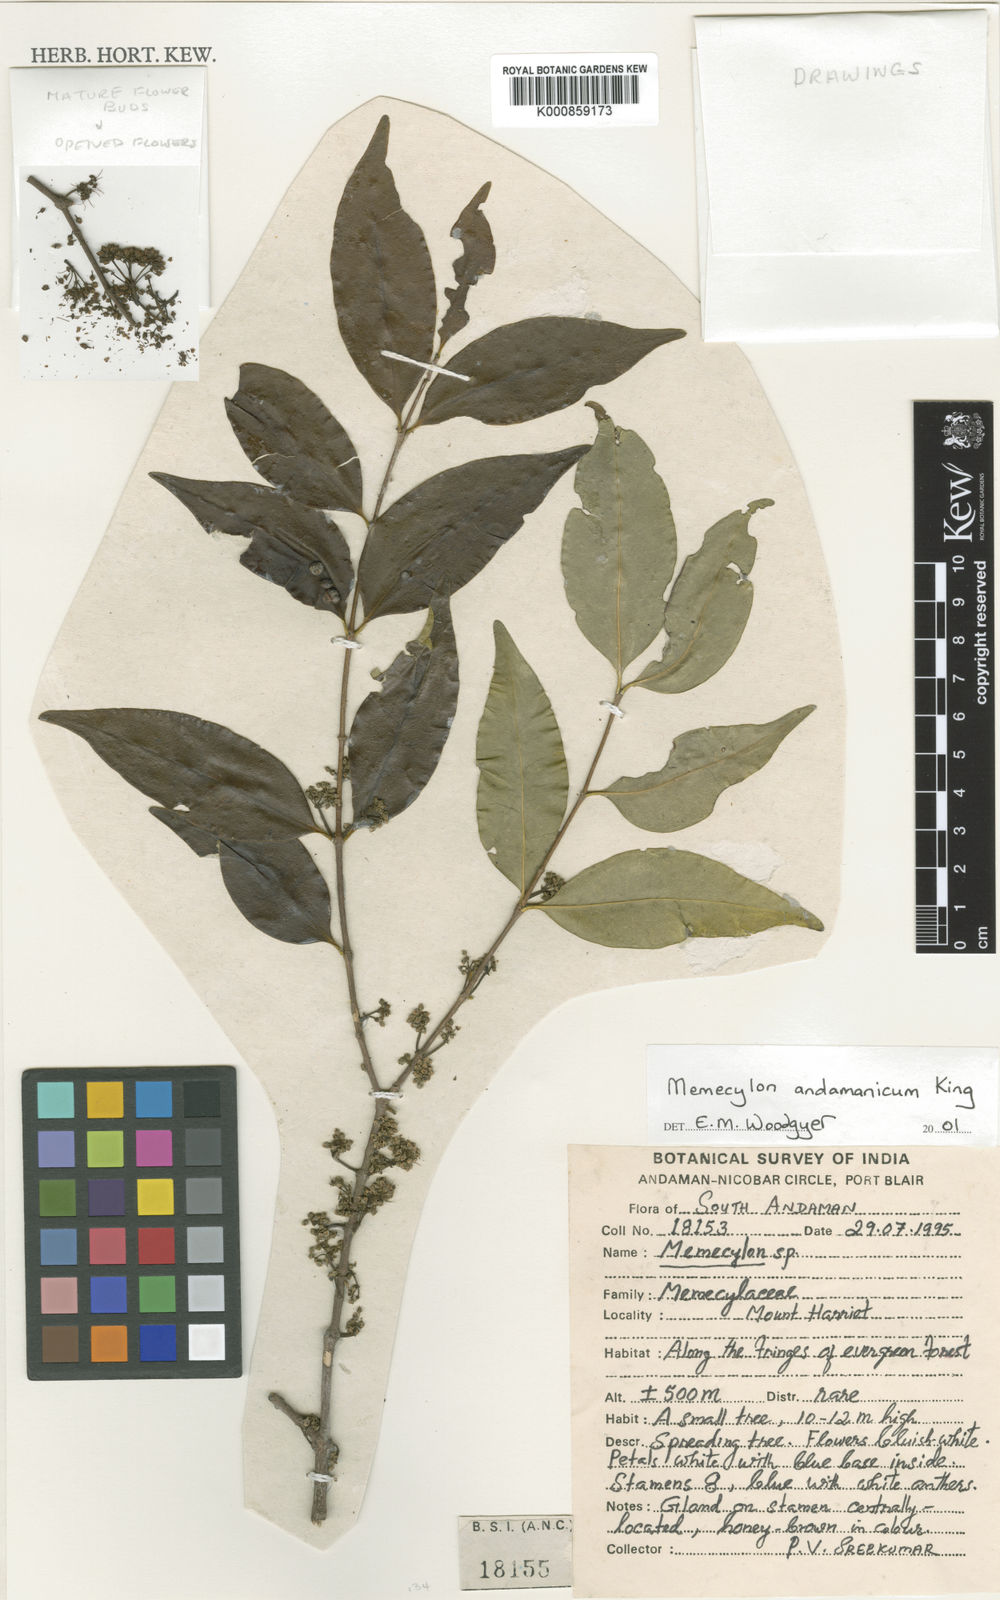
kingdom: Plantae
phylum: Tracheophyta
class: Magnoliopsida
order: Myrtales
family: Melastomataceae
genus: Memecylon
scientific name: Memecylon andamanicum
